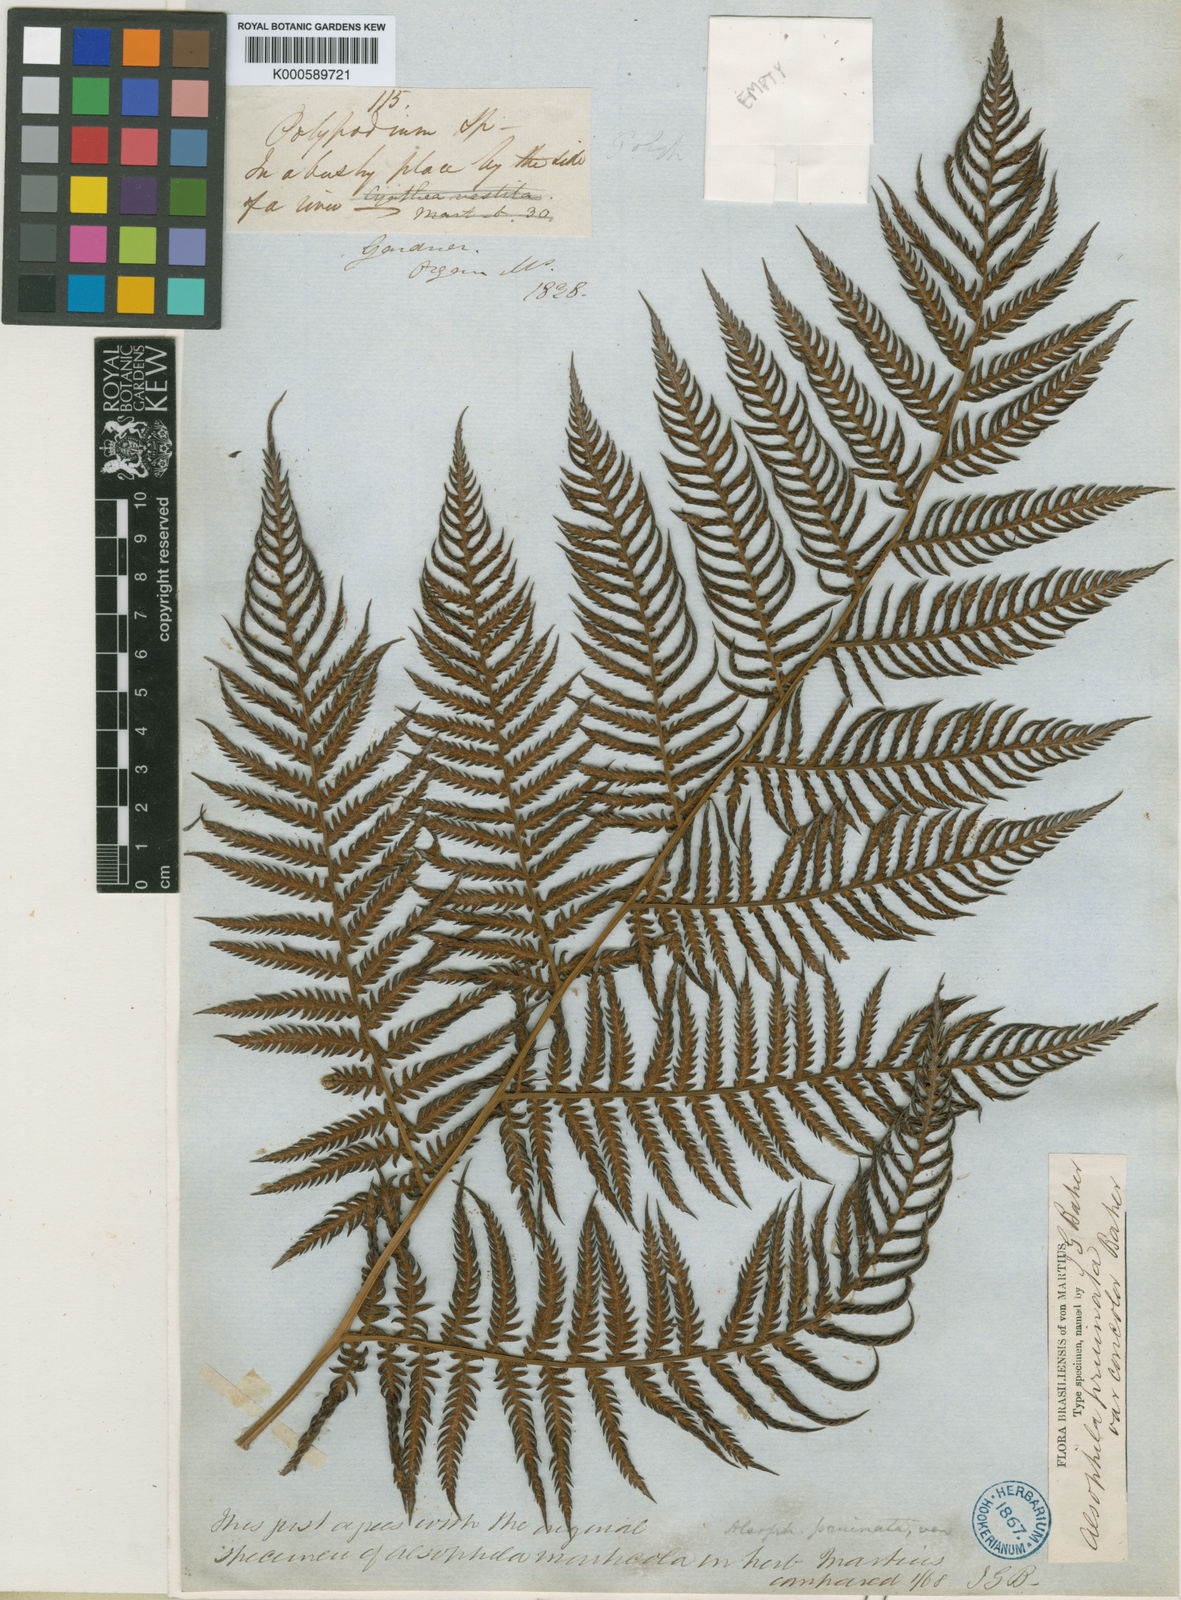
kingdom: Plantae
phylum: Tracheophyta
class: Polypodiopsida
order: Cyatheales
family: Dicksoniaceae
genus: Lophosoria
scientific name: Lophosoria quadripinnata
